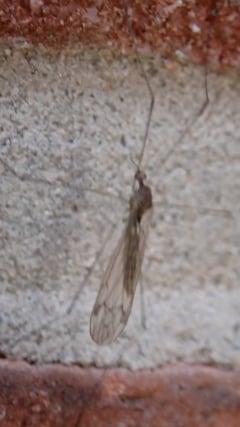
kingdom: Animalia
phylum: Arthropoda
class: Insecta
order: Diptera
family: Limoniidae
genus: Dicranomyia
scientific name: Dicranomyia chorea
